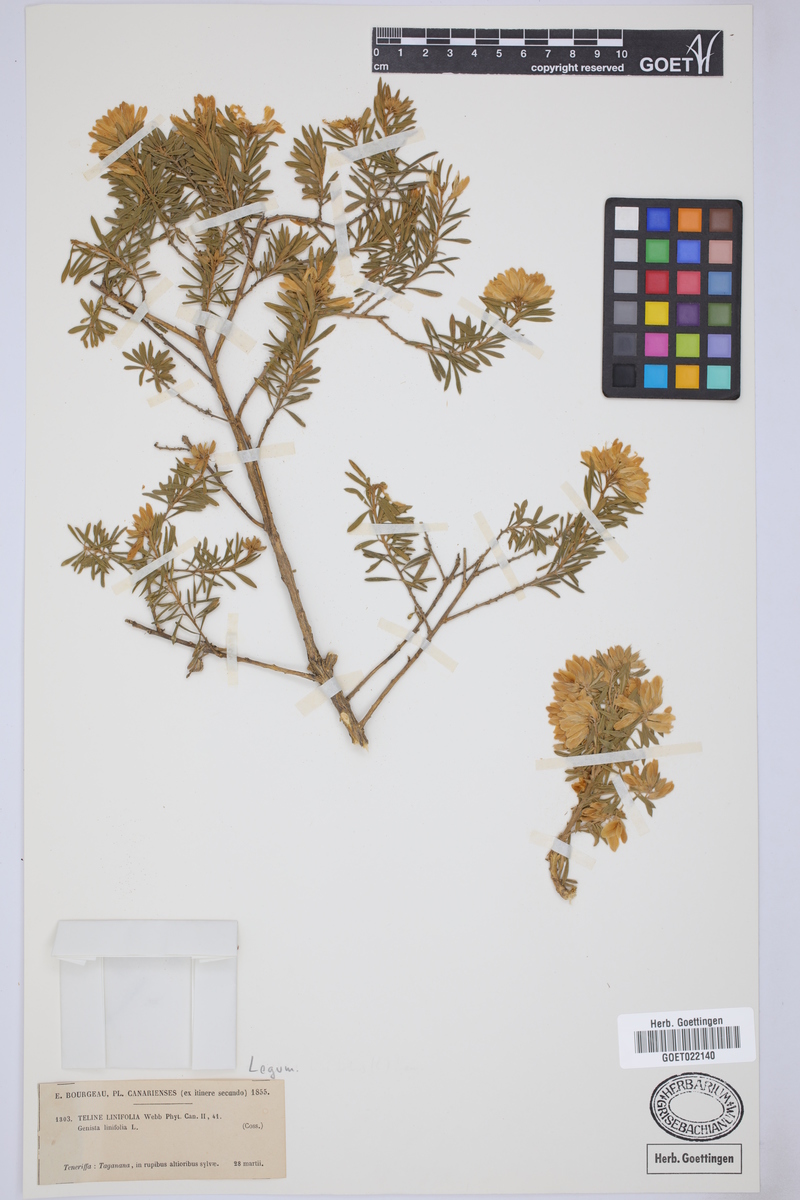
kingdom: Plantae
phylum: Tracheophyta
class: Magnoliopsida
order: Fabales
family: Fabaceae
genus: Genista
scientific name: Genista linifolia
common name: Mediterranean broom
